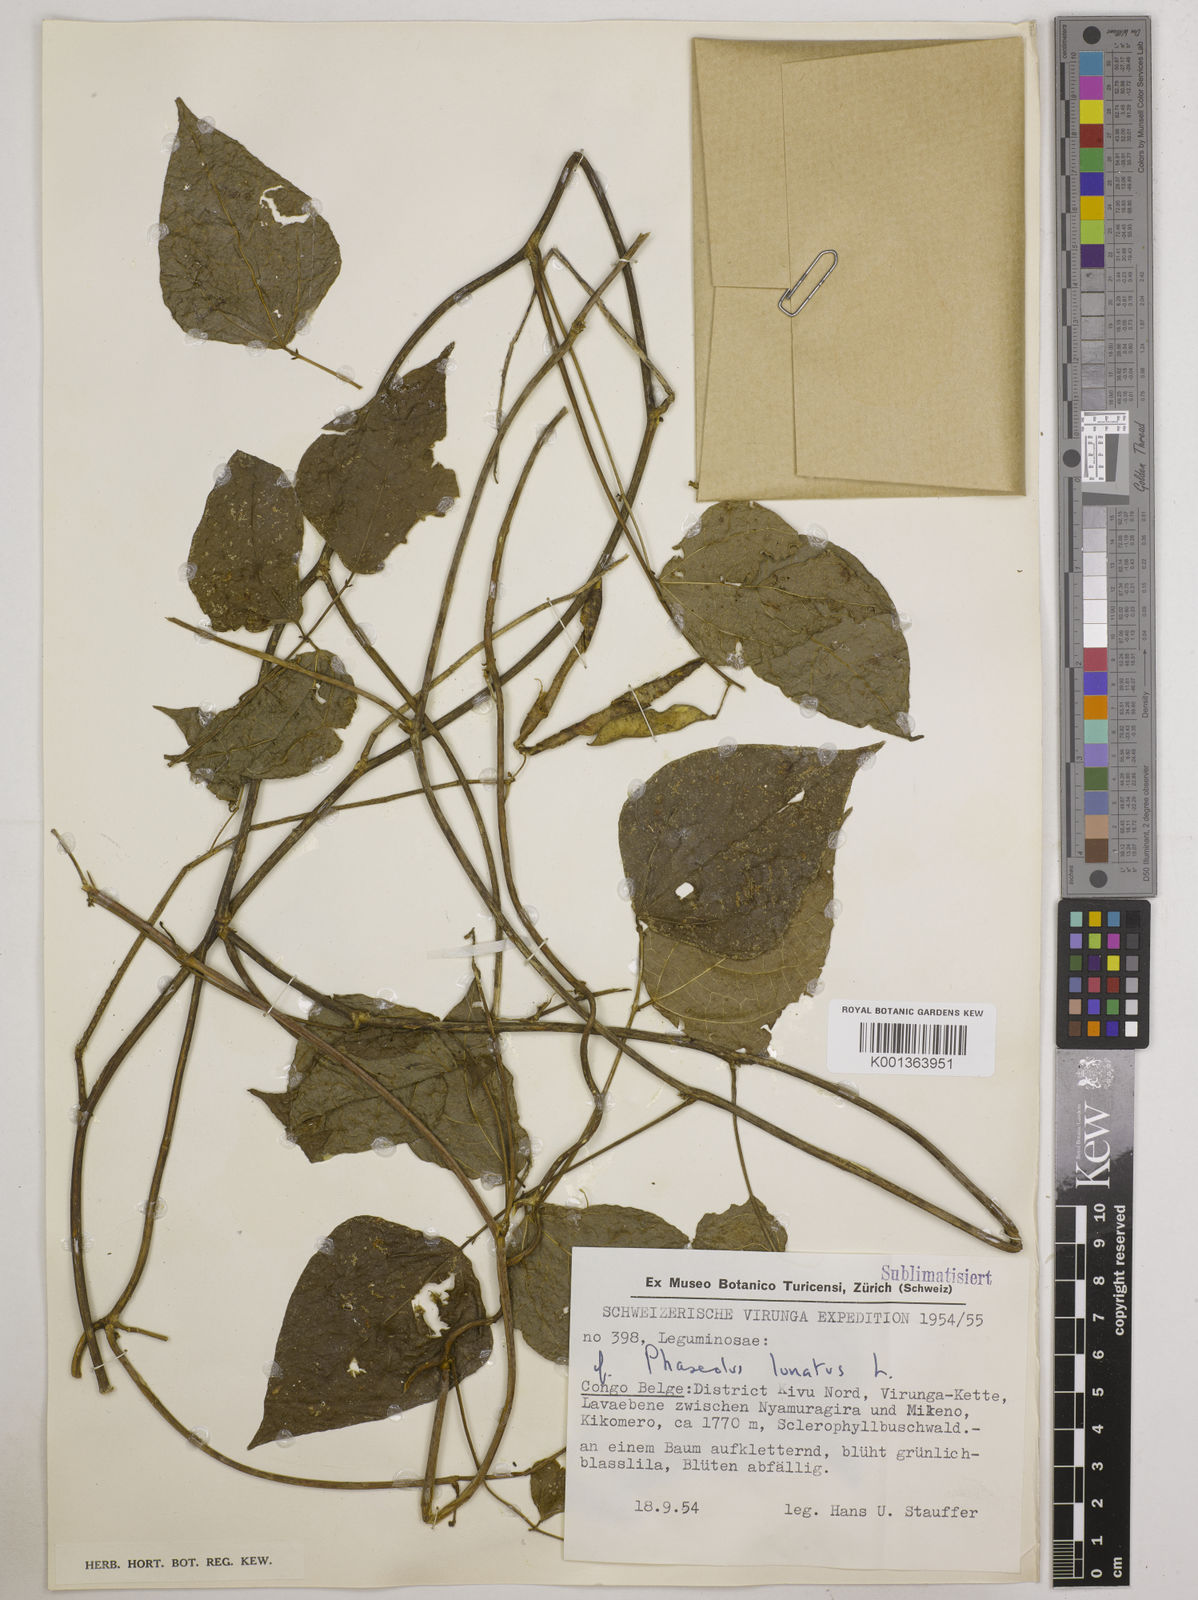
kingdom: Plantae
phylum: Tracheophyta
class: Magnoliopsida
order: Fabales
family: Fabaceae
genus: Phaseolus
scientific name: Phaseolus lunatus
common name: Sieva bean
